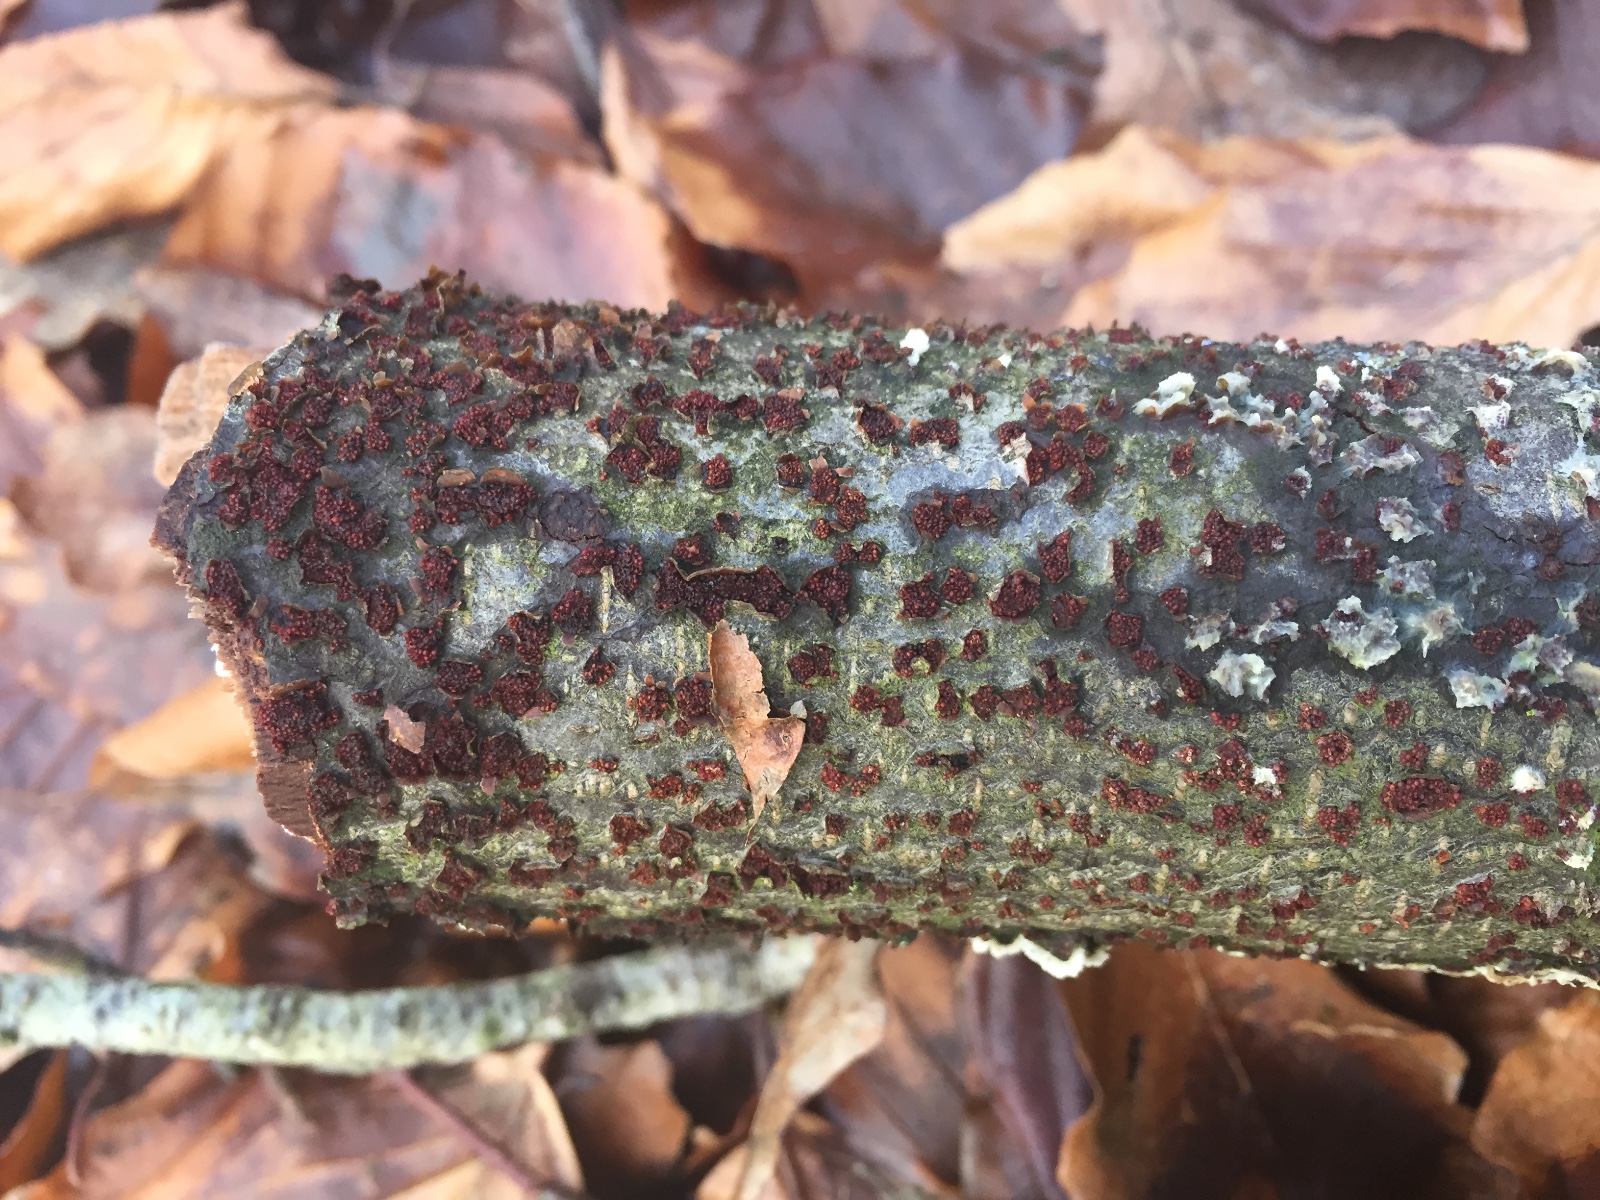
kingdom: Fungi
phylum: Ascomycota
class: Sordariomycetes
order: Hypocreales
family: Nectriaceae
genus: Neonectria
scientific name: Neonectria
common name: cinnobersvamp
